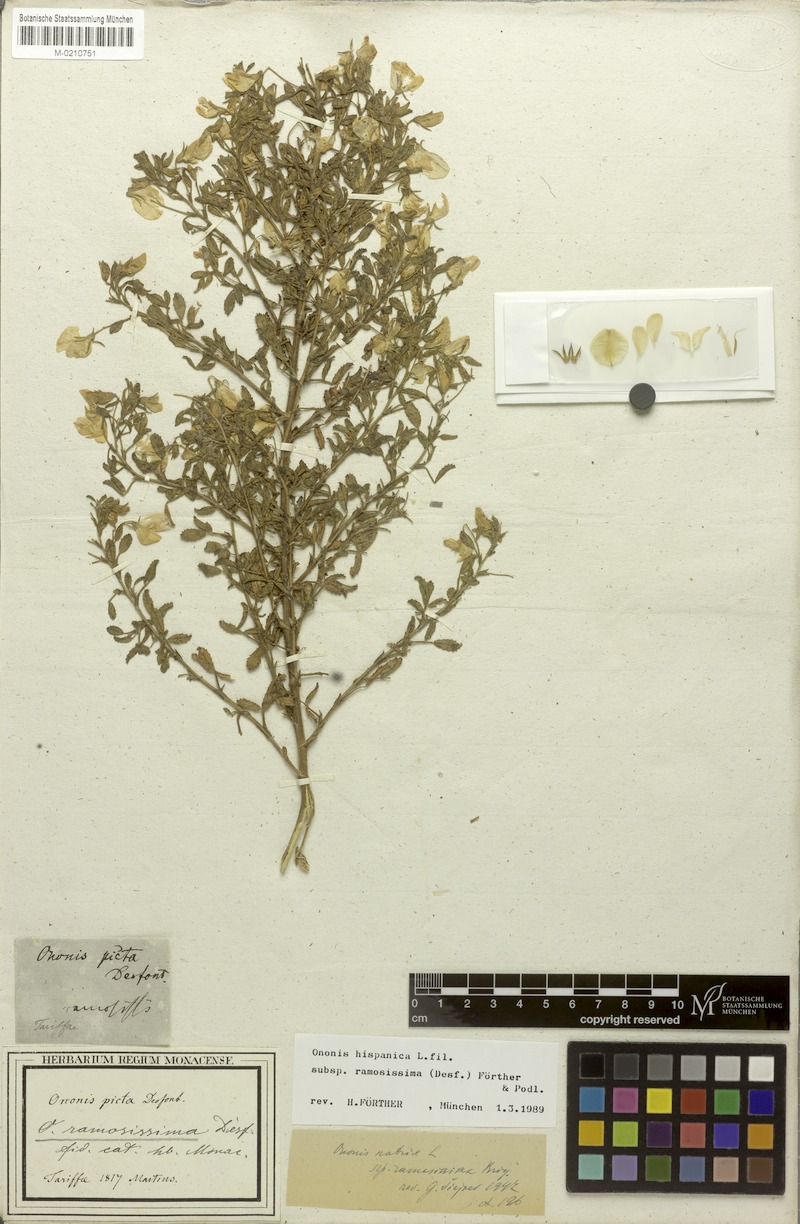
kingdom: Plantae
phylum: Tracheophyta
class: Magnoliopsida
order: Fabales
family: Fabaceae
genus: Ononis
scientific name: Ononis ramosissima
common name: Bush restharrow
